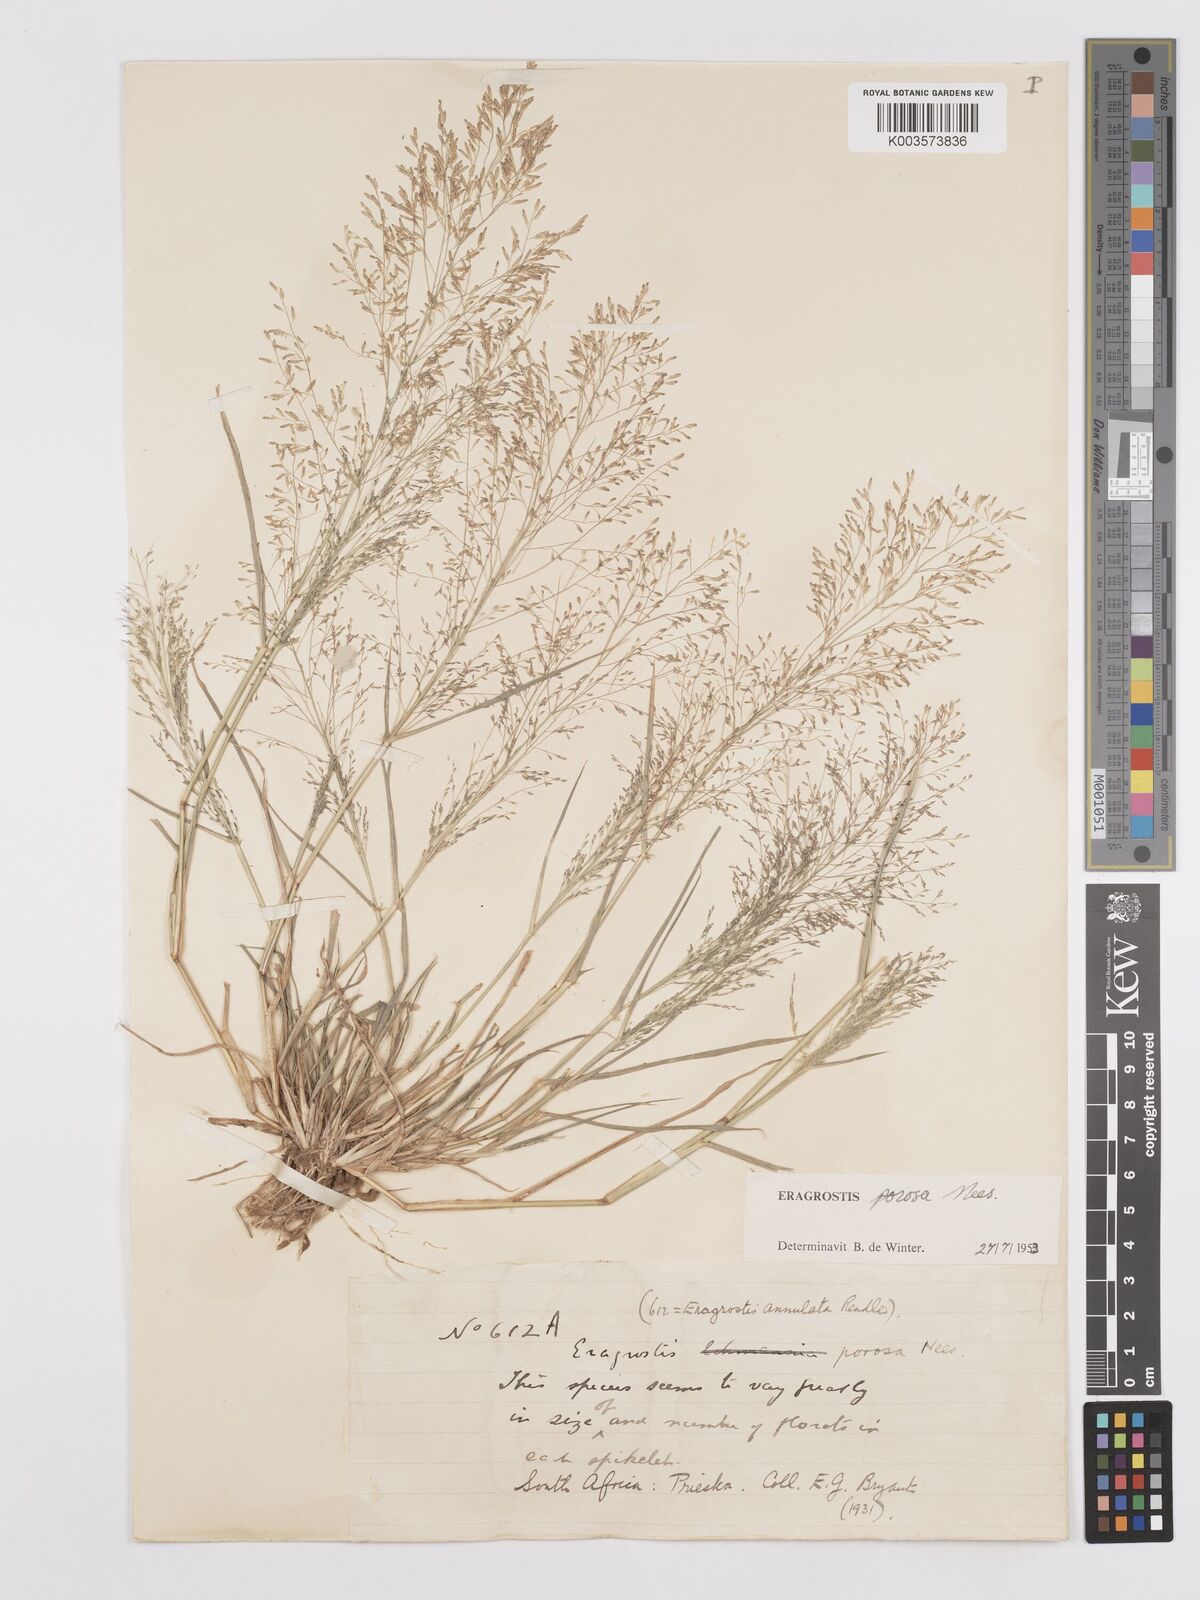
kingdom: Plantae
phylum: Tracheophyta
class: Liliopsida
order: Poales
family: Poaceae
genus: Eragrostis
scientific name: Eragrostis porosa
